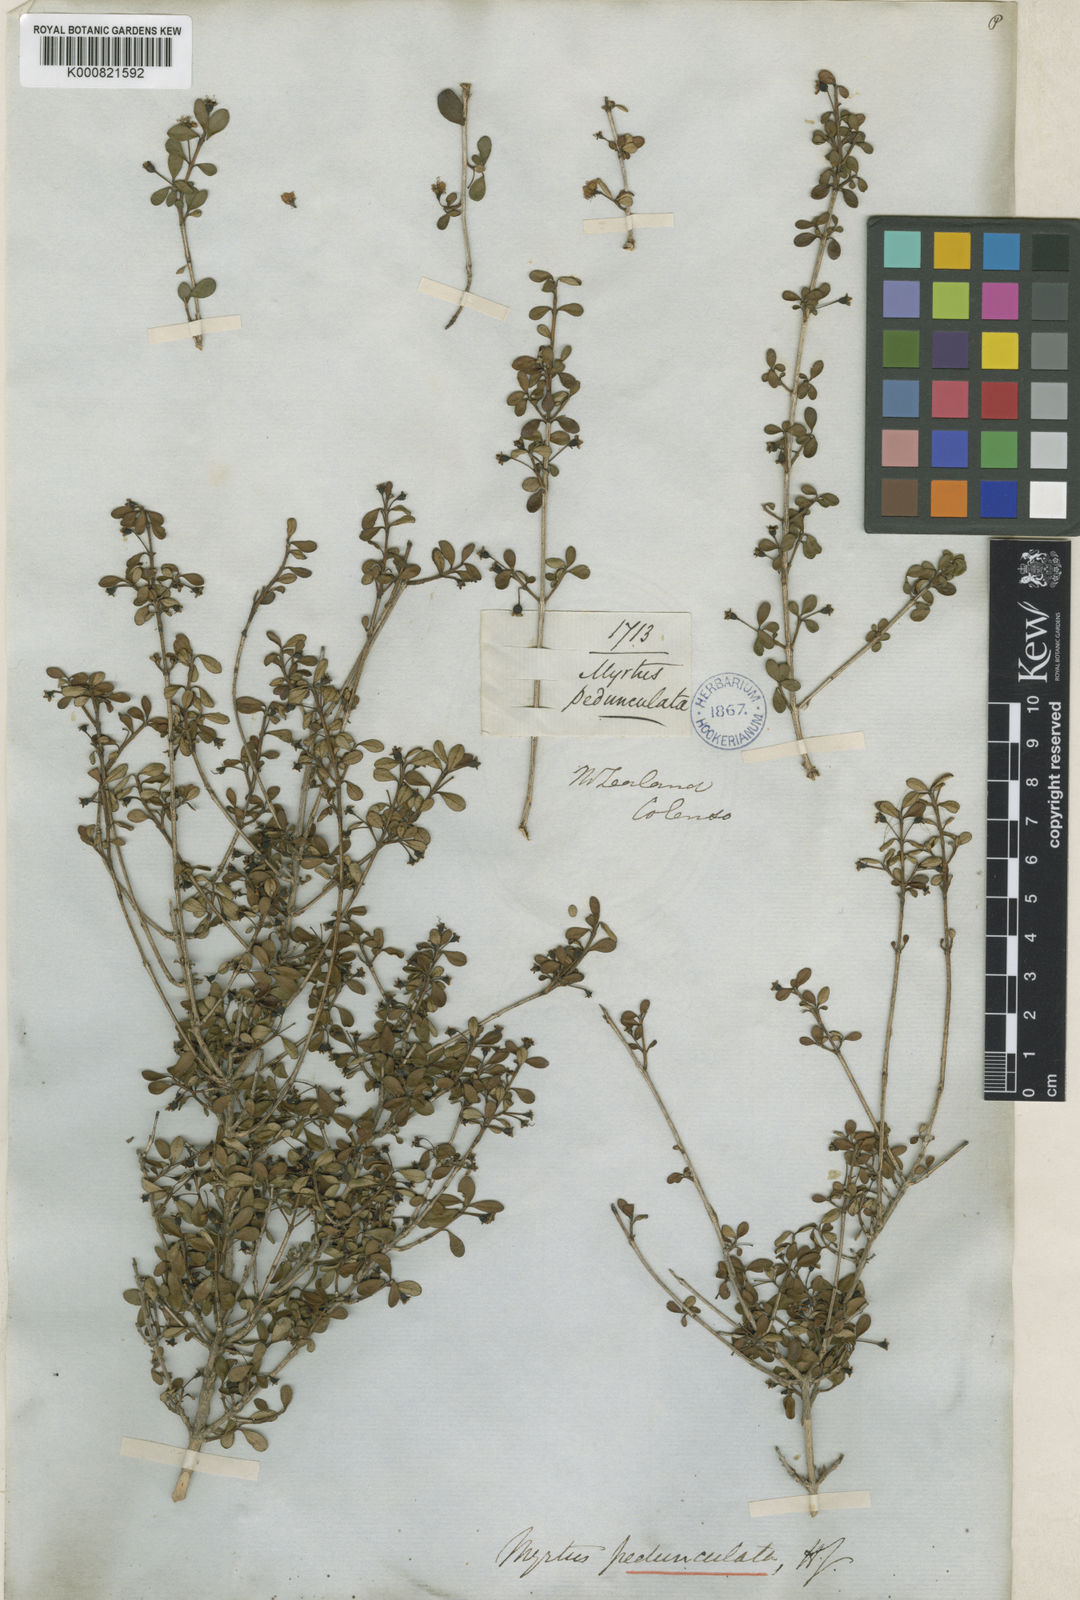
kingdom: Plantae
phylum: Tracheophyta
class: Magnoliopsida
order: Myrtales
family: Myrtaceae
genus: Neomyrtus
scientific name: Neomyrtus pedunculata
